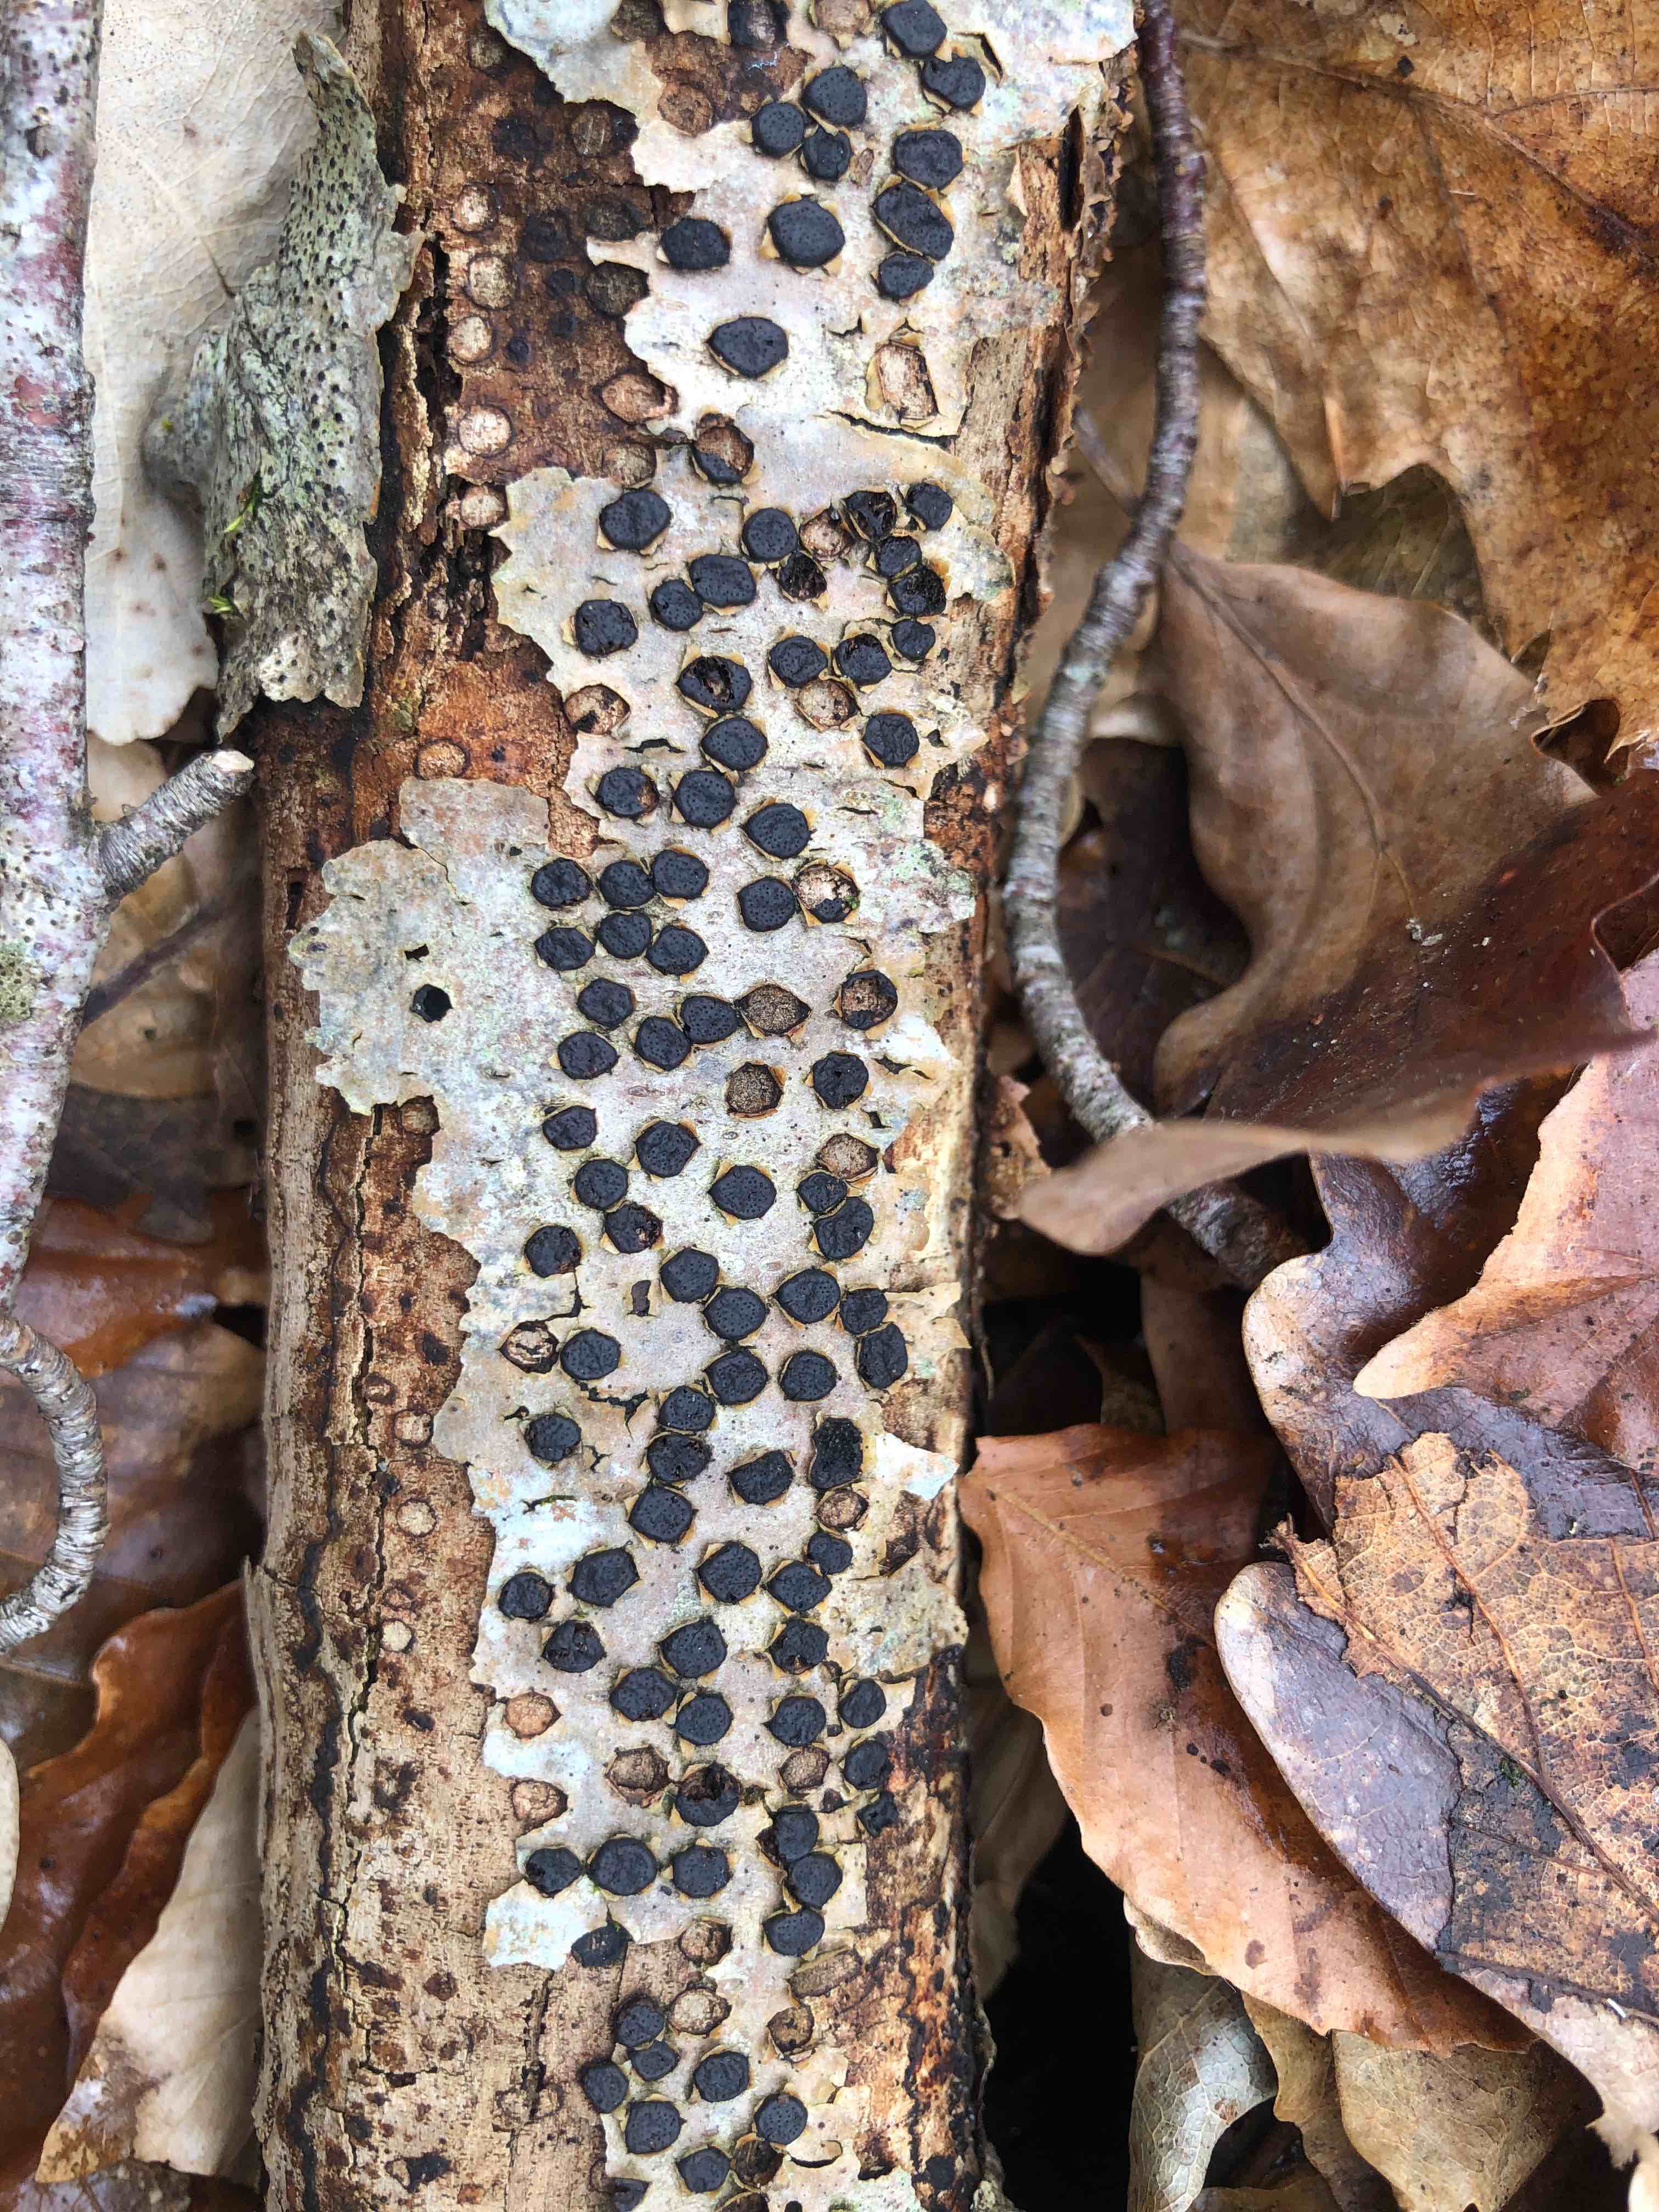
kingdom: Fungi
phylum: Ascomycota
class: Sordariomycetes
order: Xylariales
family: Diatrypaceae
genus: Diatrype
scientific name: Diatrype disciformis
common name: kant-kulskorpe
